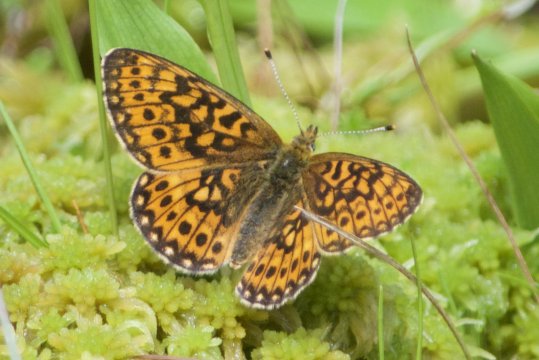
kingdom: Animalia
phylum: Arthropoda
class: Insecta
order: Lepidoptera
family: Nymphalidae
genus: Boloria
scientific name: Boloria eunomia
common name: Bog Fritillary
